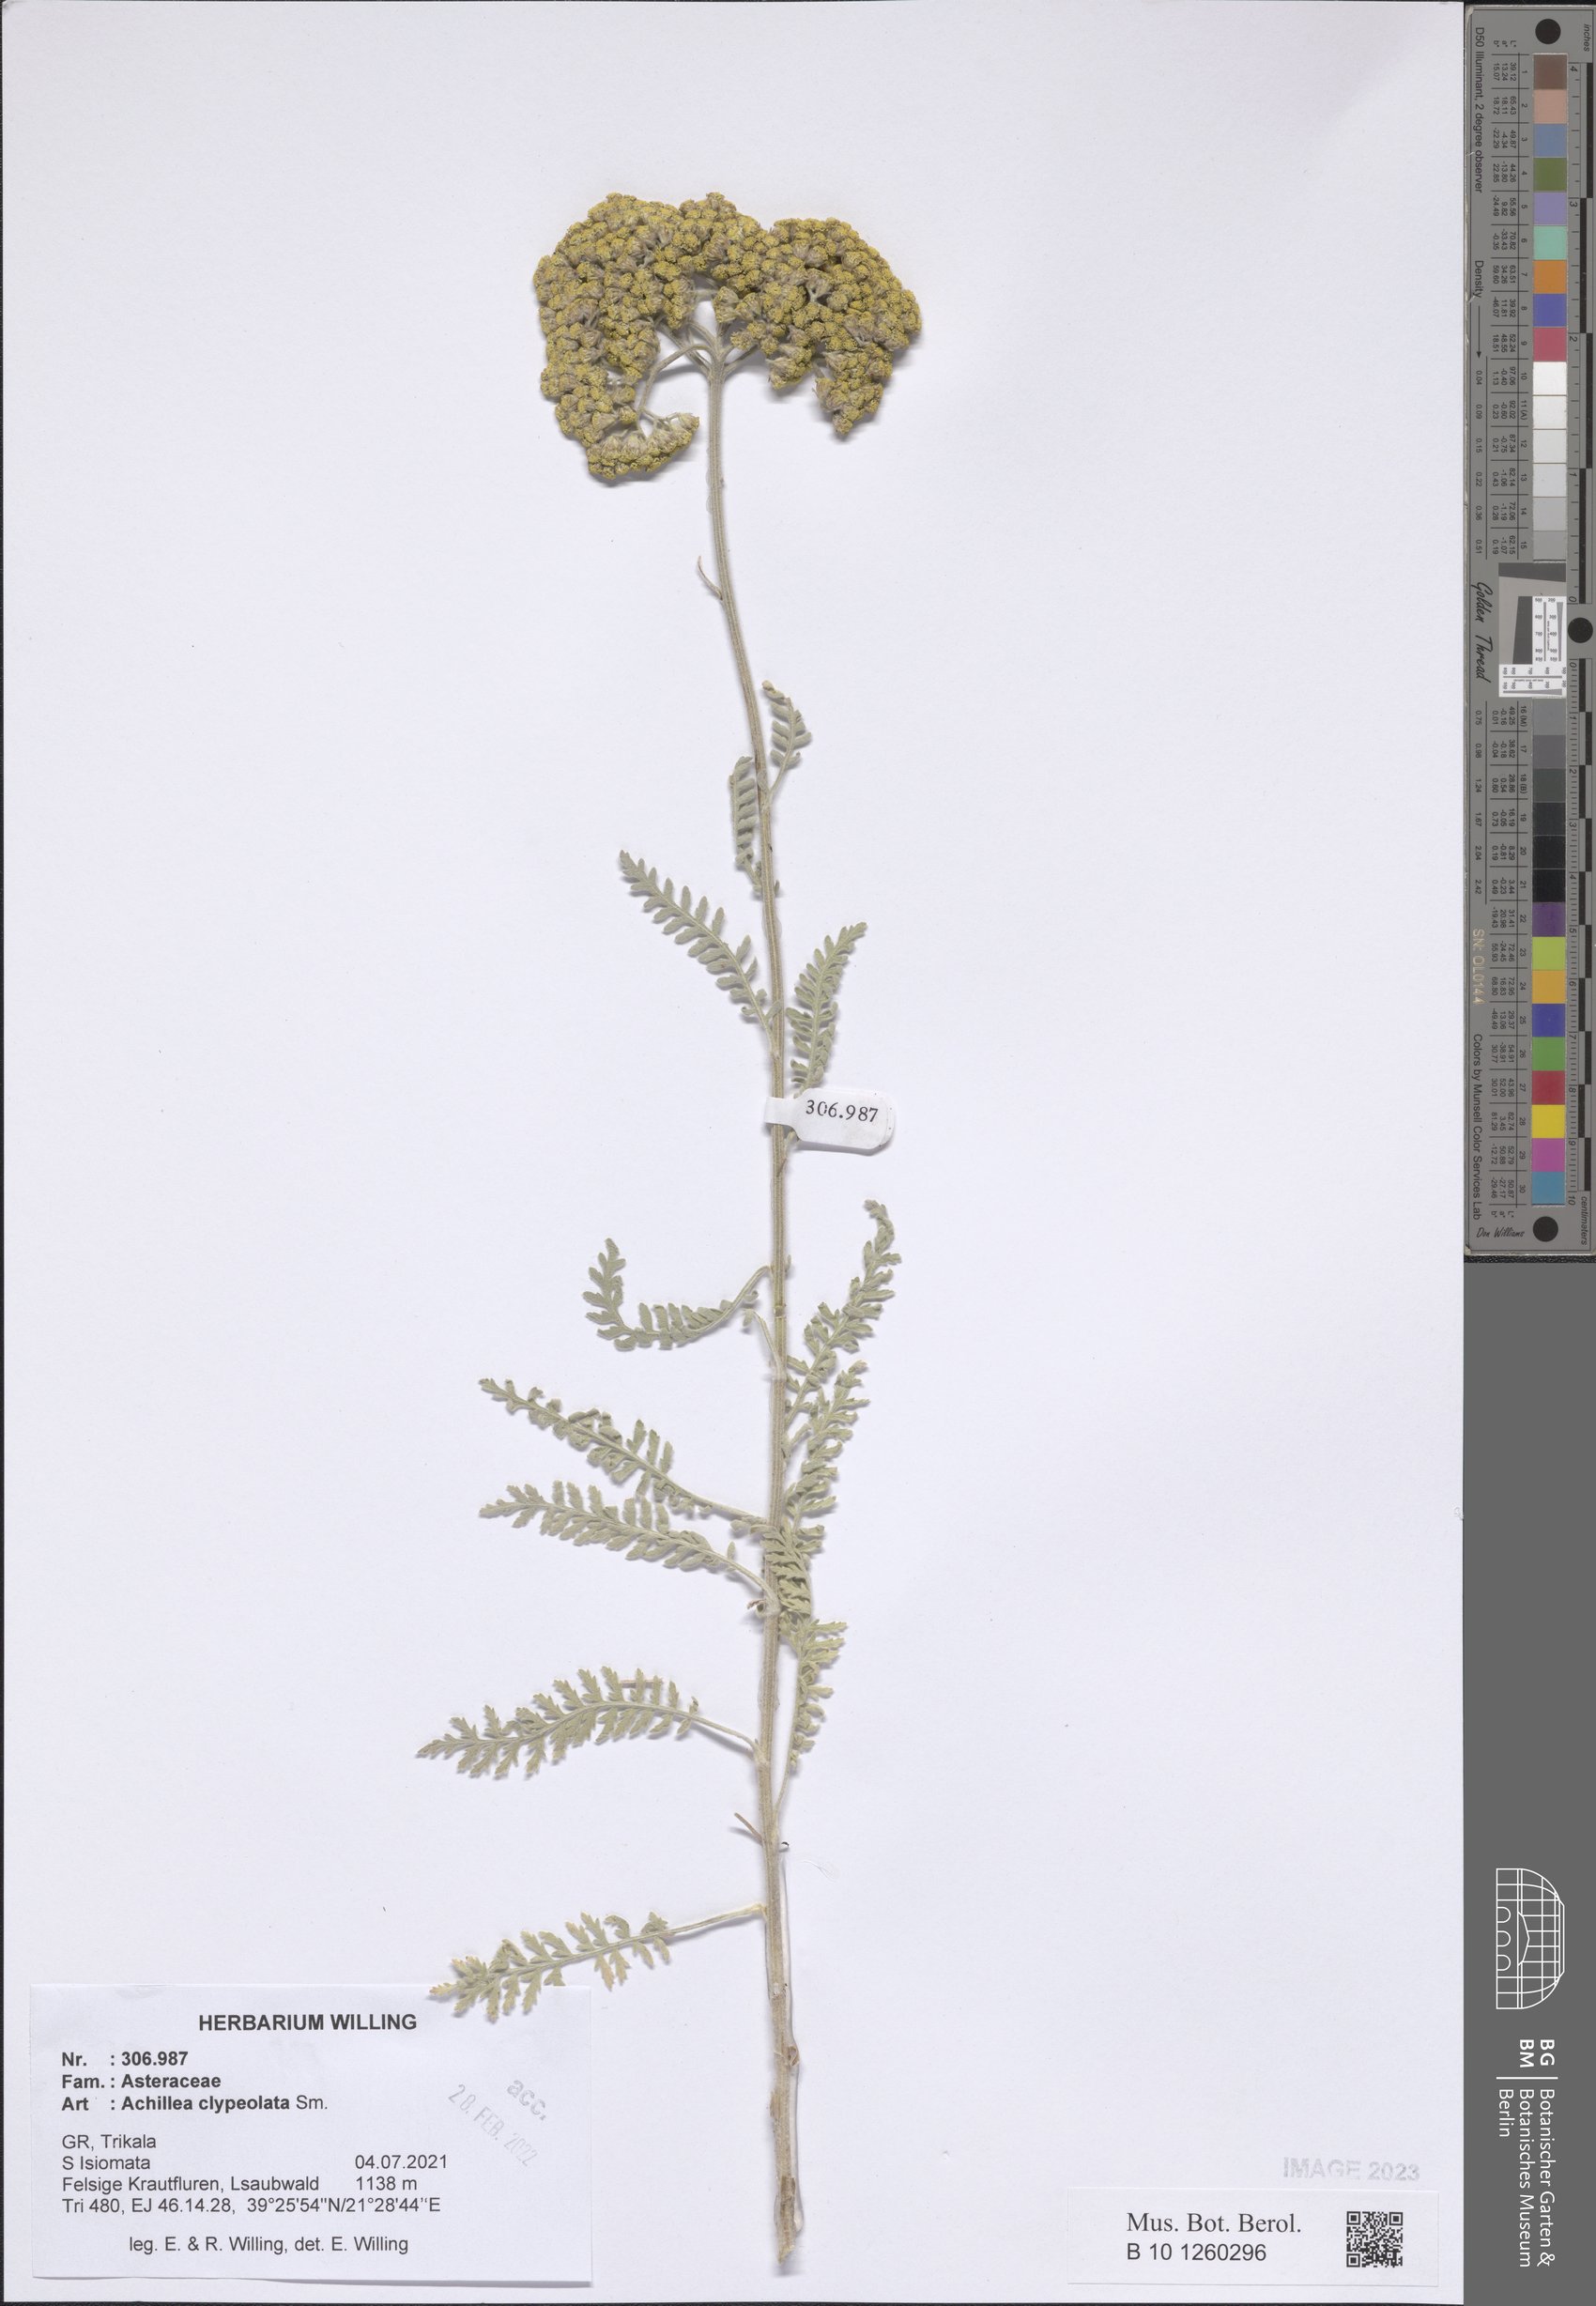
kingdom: Plantae
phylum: Tracheophyta
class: Magnoliopsida
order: Asterales
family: Asteraceae
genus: Achillea
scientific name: Achillea clypeolata
